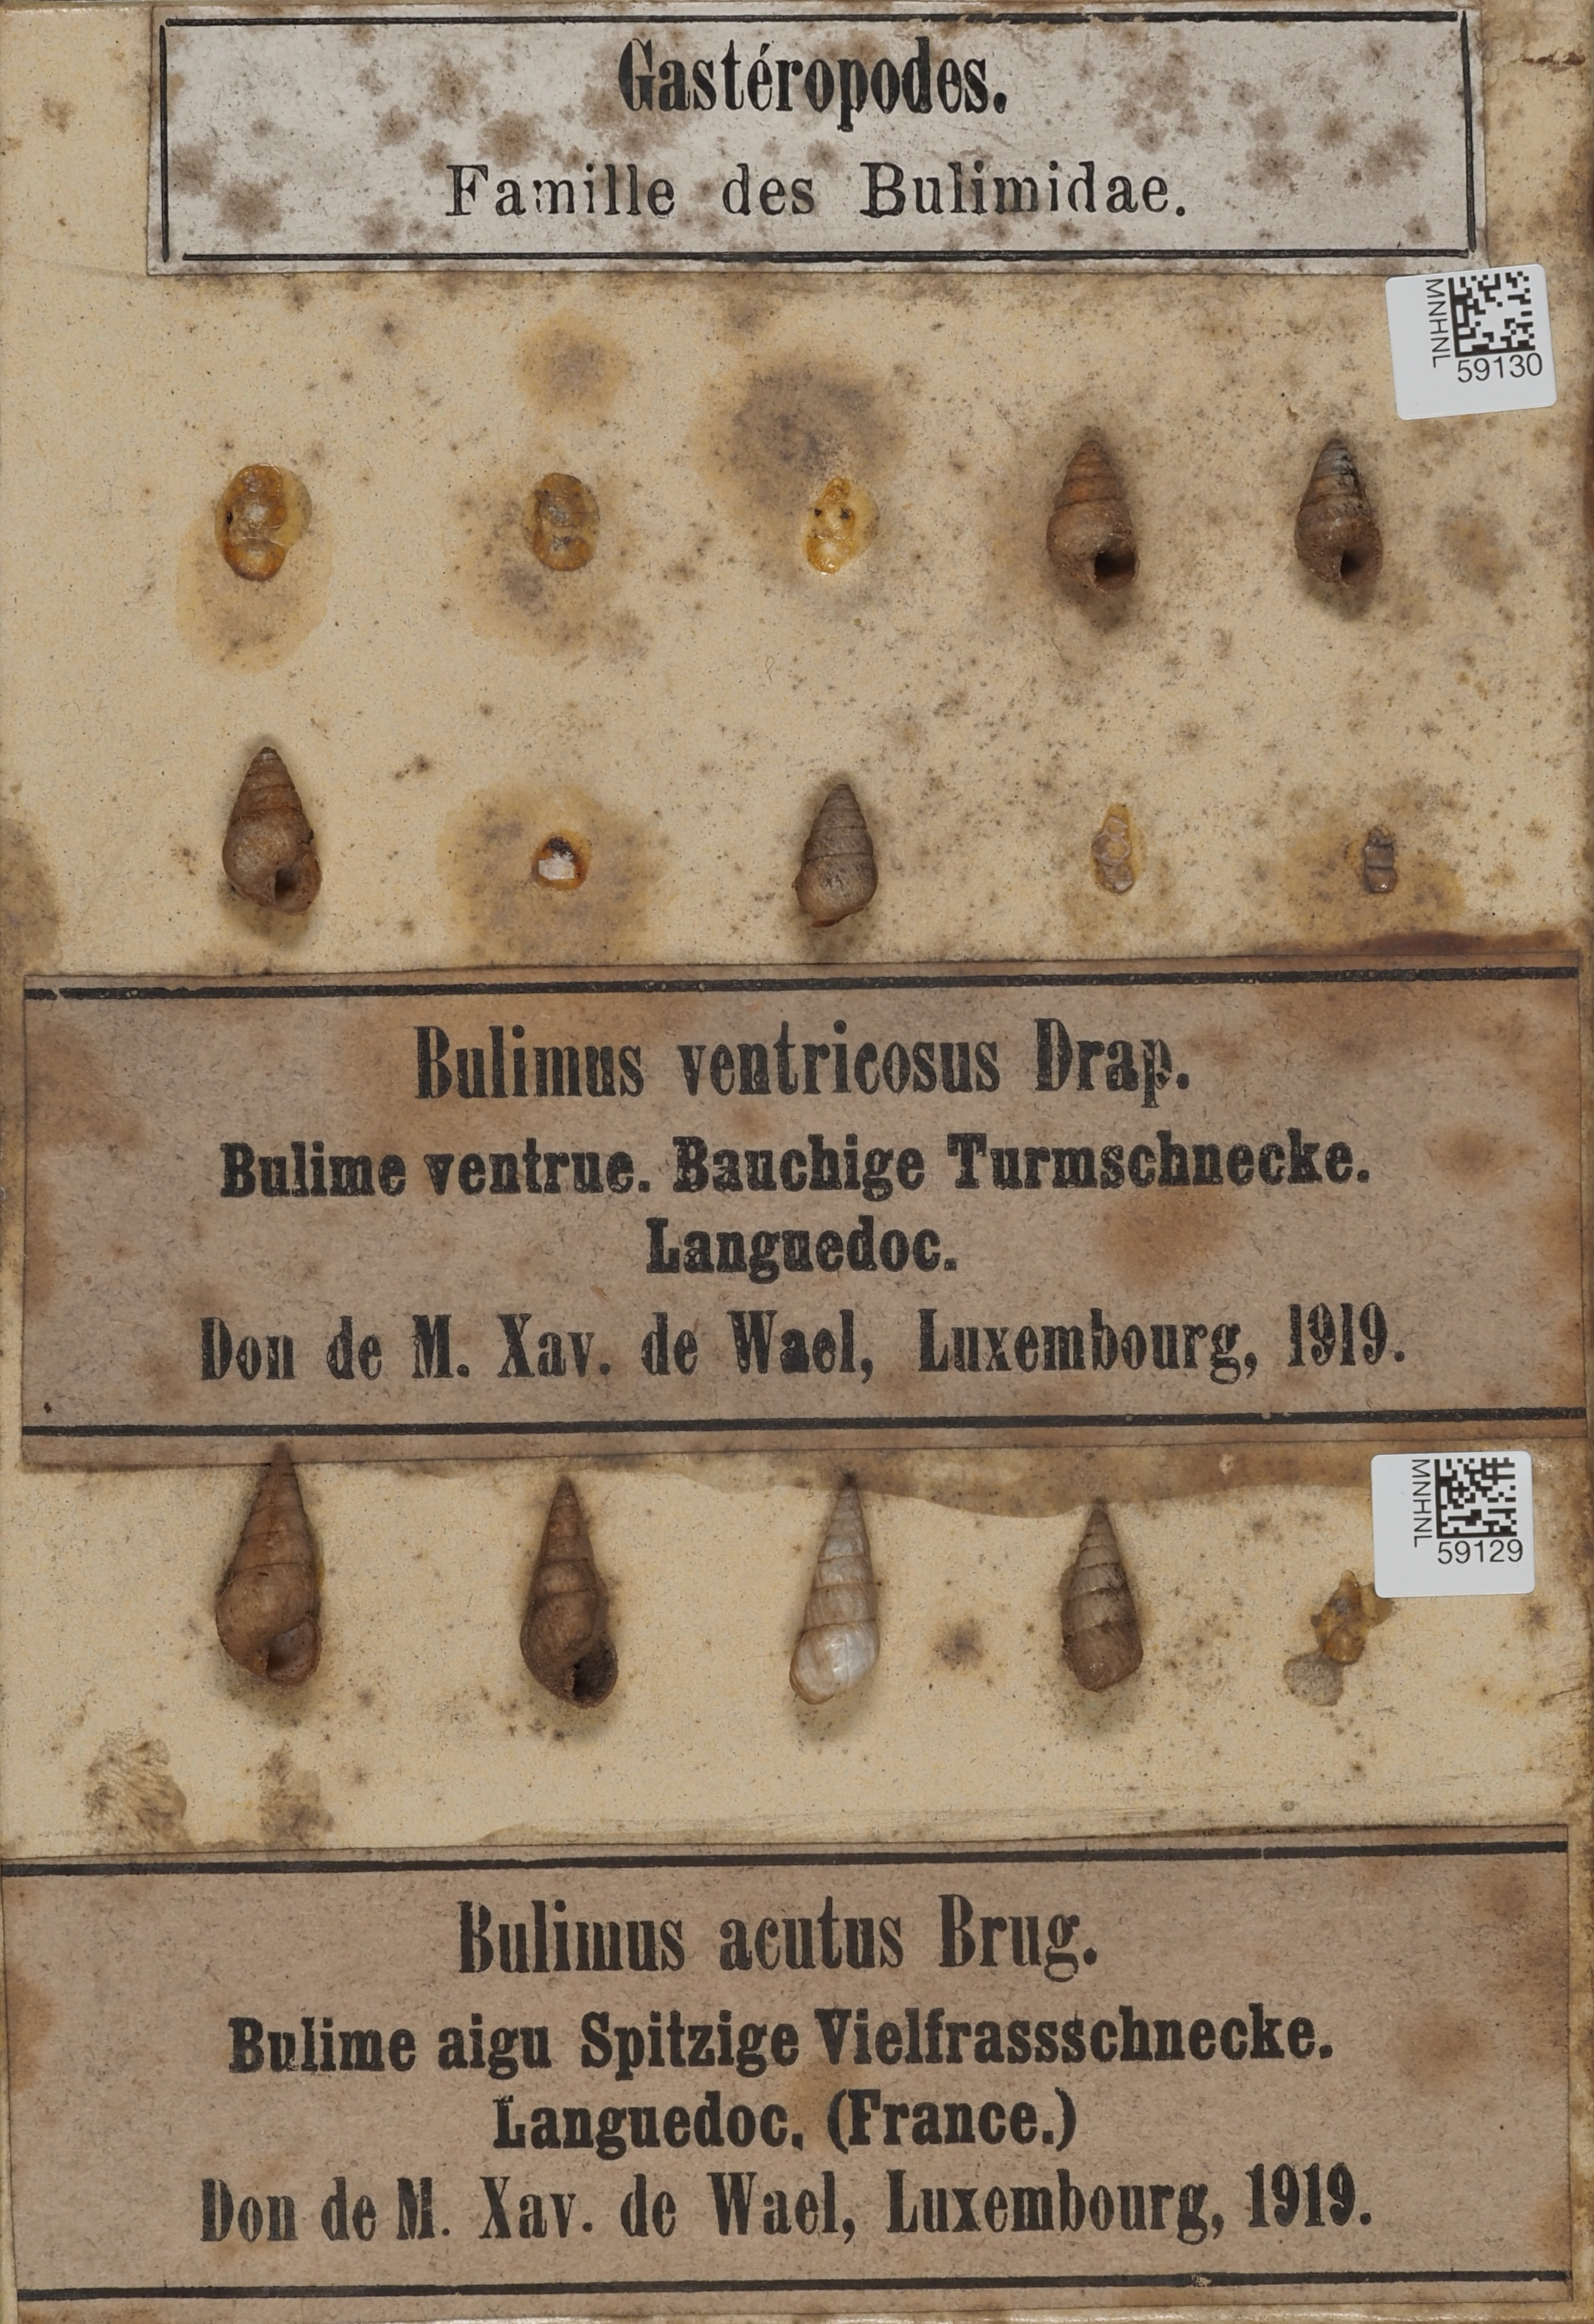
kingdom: Animalia
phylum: Mollusca
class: Gastropoda
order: Stylommatophora
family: Geomitridae
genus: Cochlicella
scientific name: Cochlicella acuta
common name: Pointed snail
